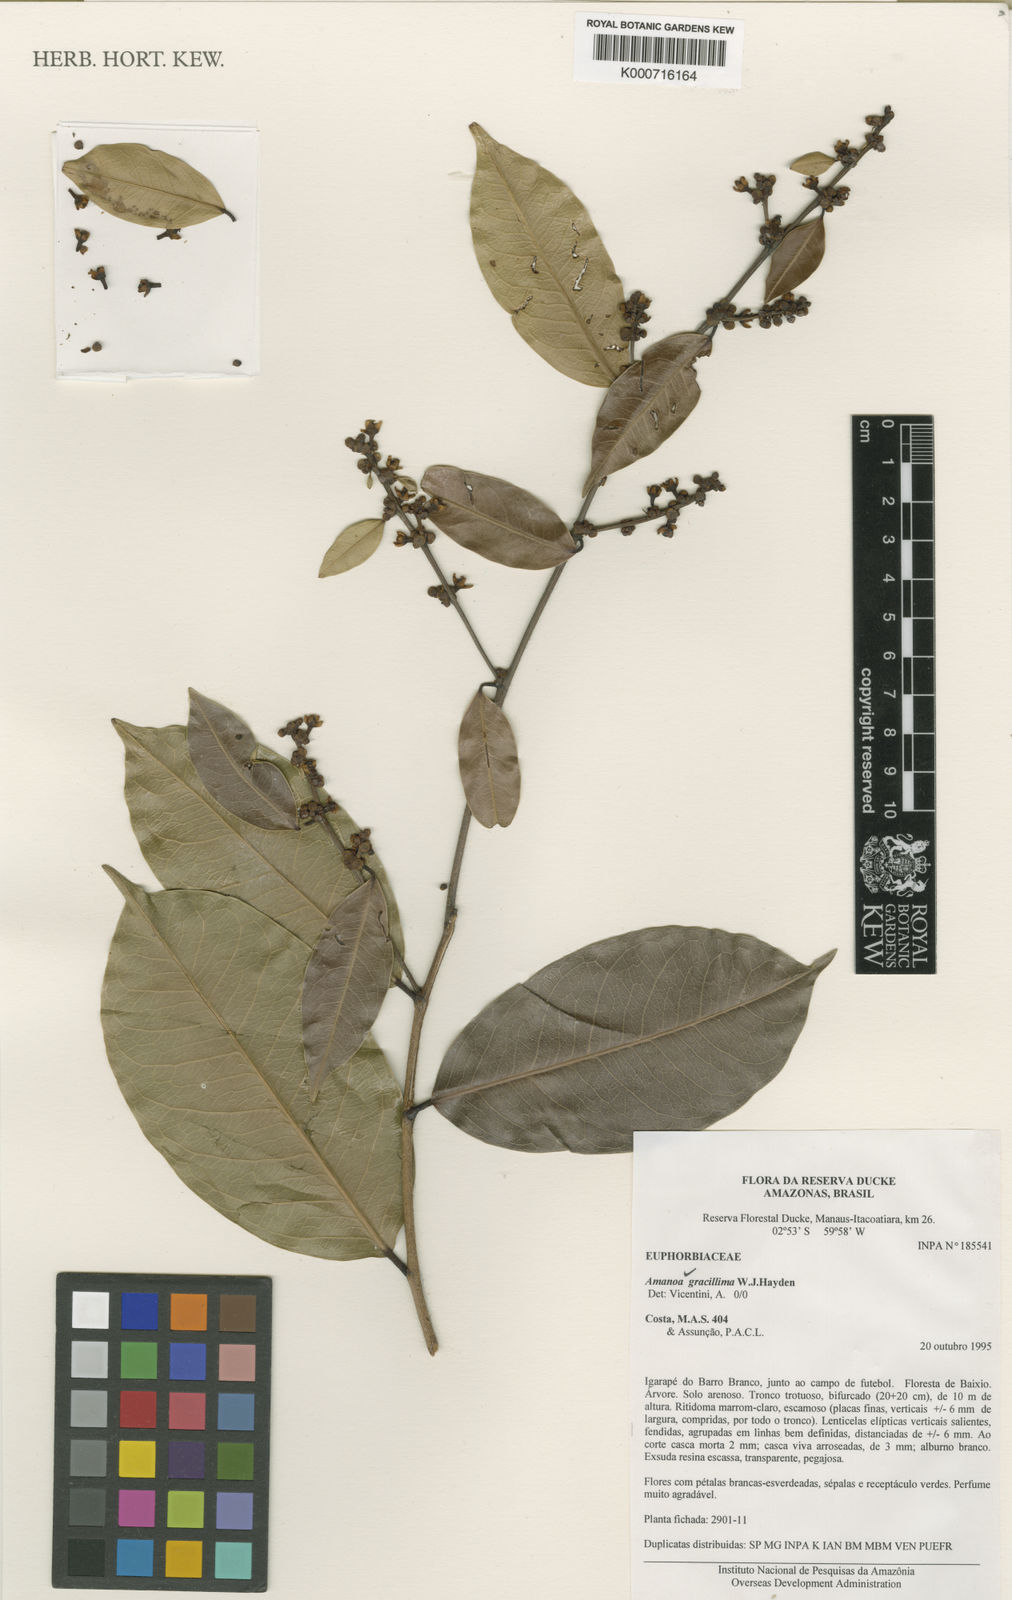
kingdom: Plantae
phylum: Tracheophyta
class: Magnoliopsida
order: Malpighiales
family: Phyllanthaceae
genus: Amanoa
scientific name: Amanoa gracillima
